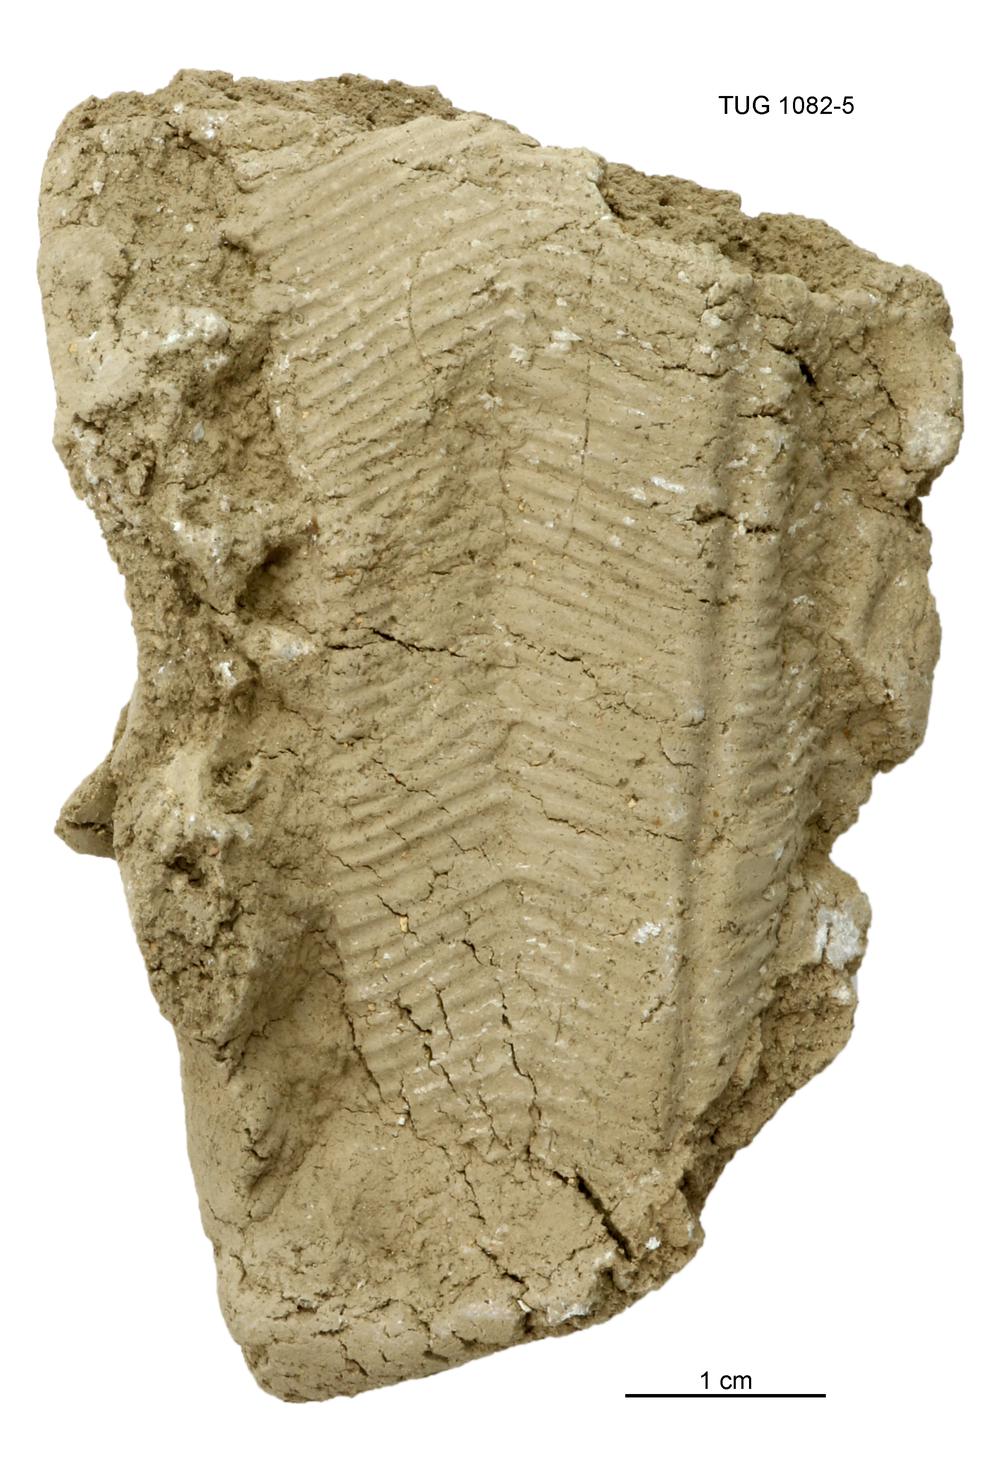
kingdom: Animalia
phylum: Cnidaria
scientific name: Cnidaria
